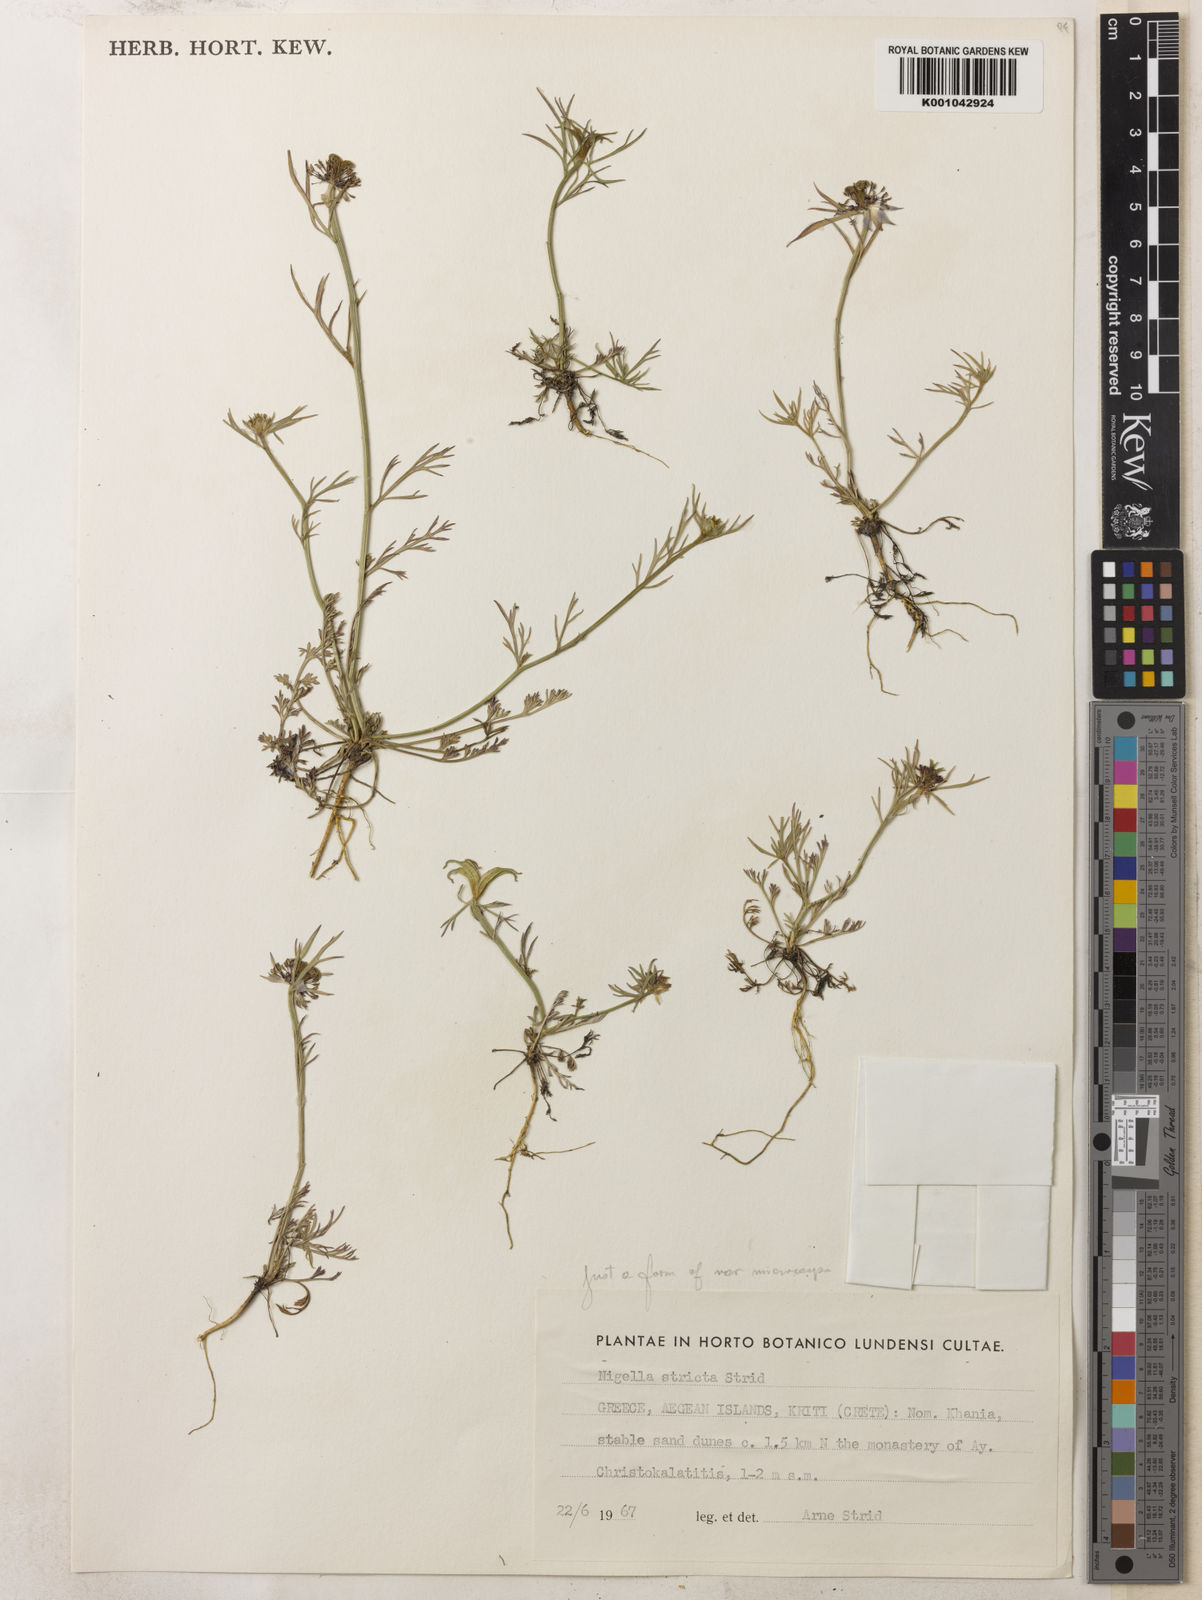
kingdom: Plantae
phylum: Tracheophyta
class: Magnoliopsida
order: Ranunculales
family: Ranunculaceae
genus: Nigella
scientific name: Nigella stricta
